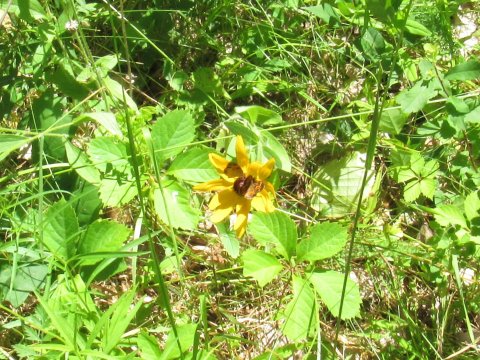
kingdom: Animalia
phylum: Arthropoda
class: Insecta
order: Lepidoptera
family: Nymphalidae
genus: Phyciodes
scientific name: Phyciodes tharos
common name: Pearl Crescent
